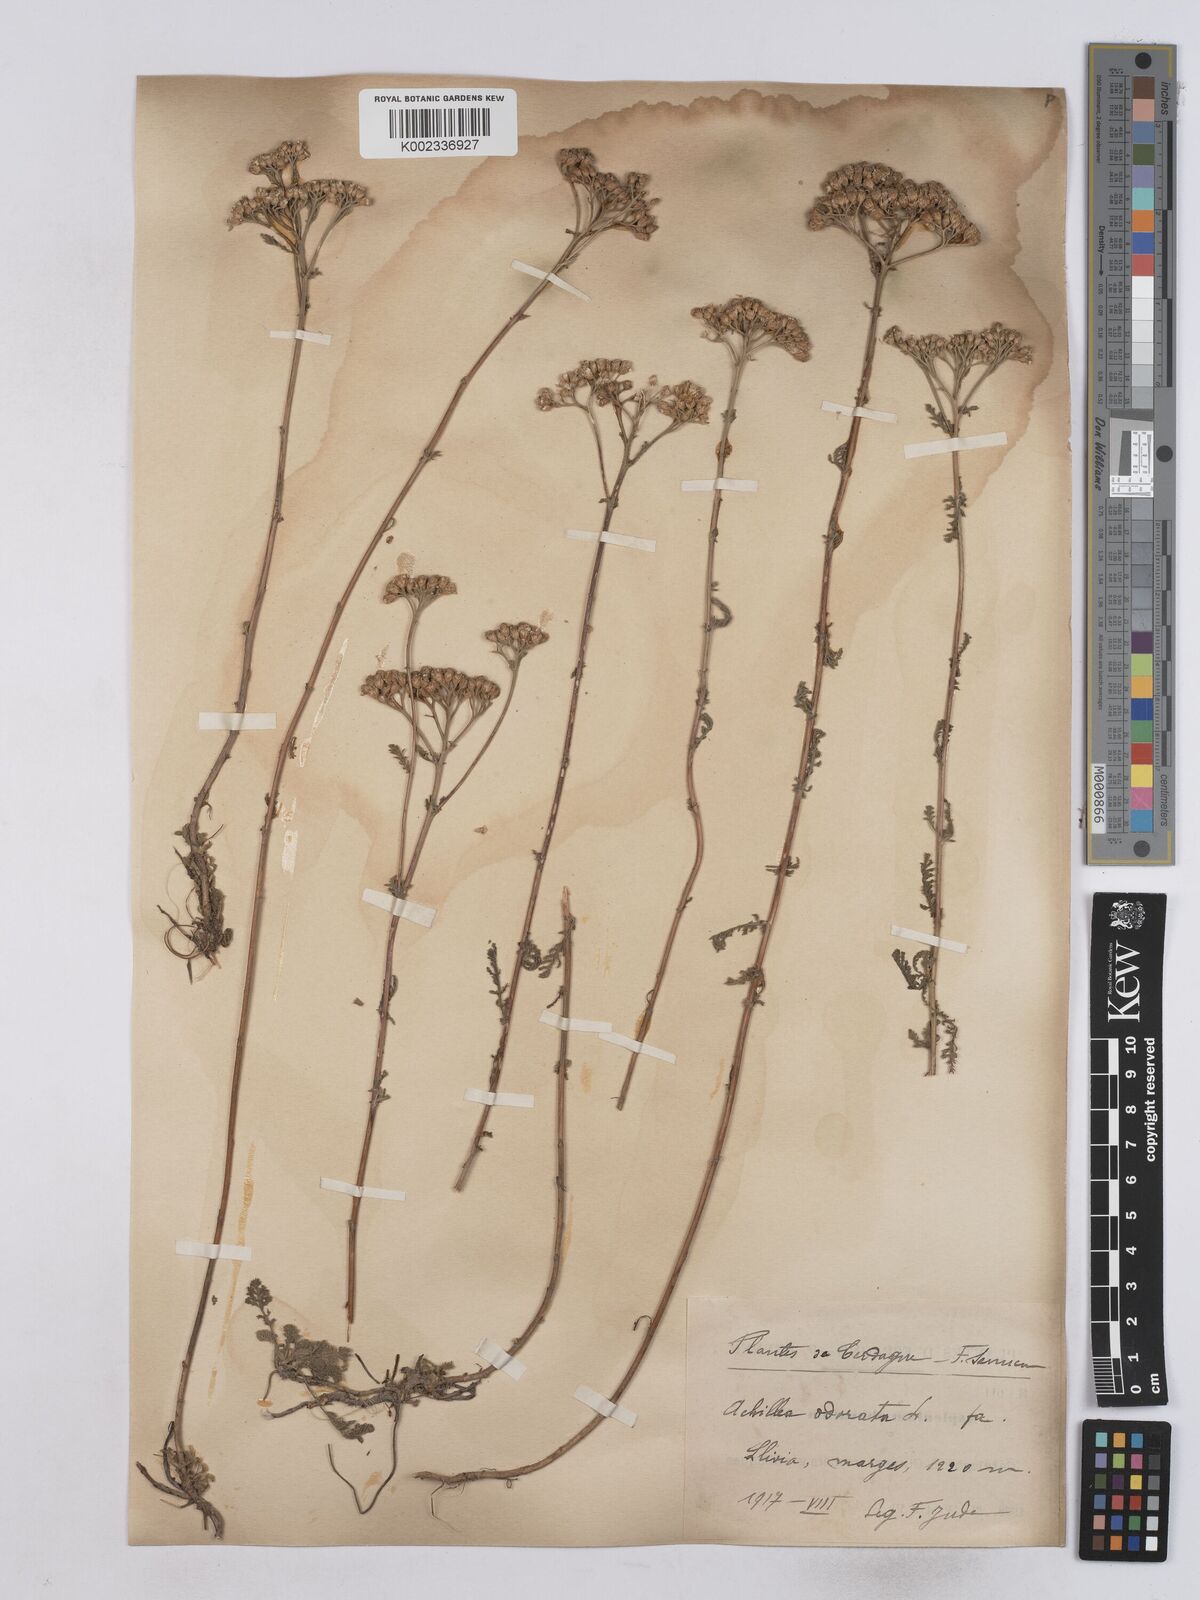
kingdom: Plantae
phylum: Tracheophyta
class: Magnoliopsida
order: Asterales
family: Asteraceae
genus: Achillea
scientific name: Achillea odorata
